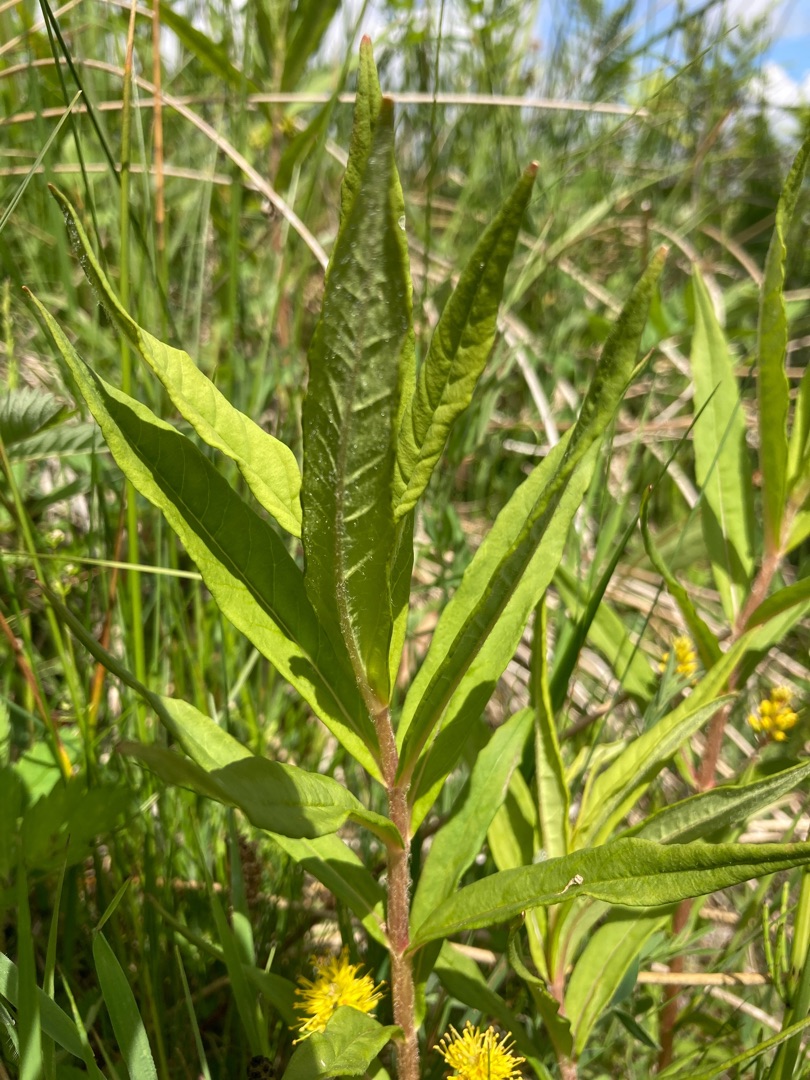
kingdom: Plantae
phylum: Tracheophyta
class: Magnoliopsida
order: Ericales
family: Primulaceae
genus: Lysimachia
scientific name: Lysimachia thyrsiflora
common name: Dusk-fredløs
